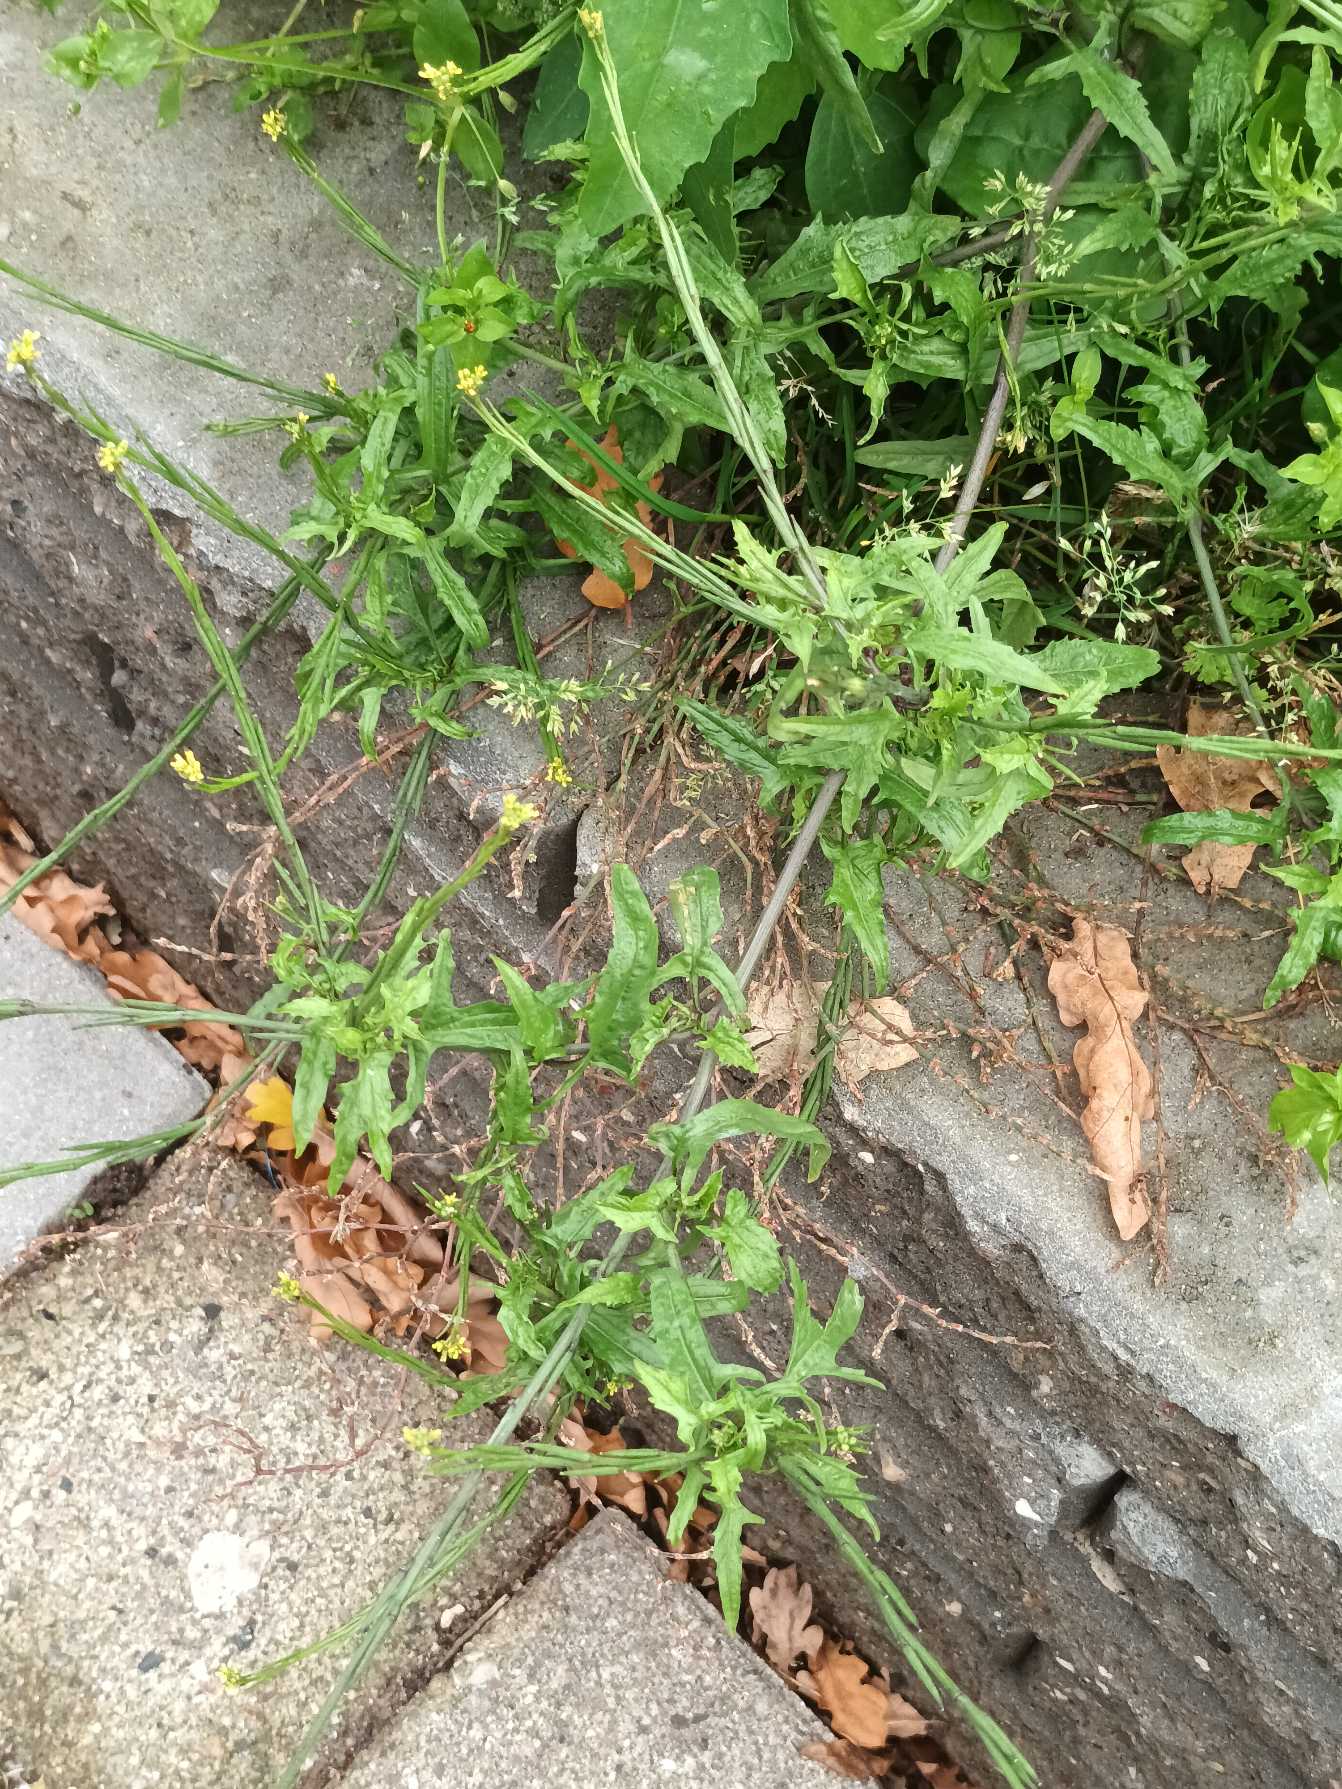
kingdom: Plantae
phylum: Tracheophyta
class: Magnoliopsida
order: Brassicales
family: Brassicaceae
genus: Sisymbrium
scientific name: Sisymbrium officinale
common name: Rank vejsennep
